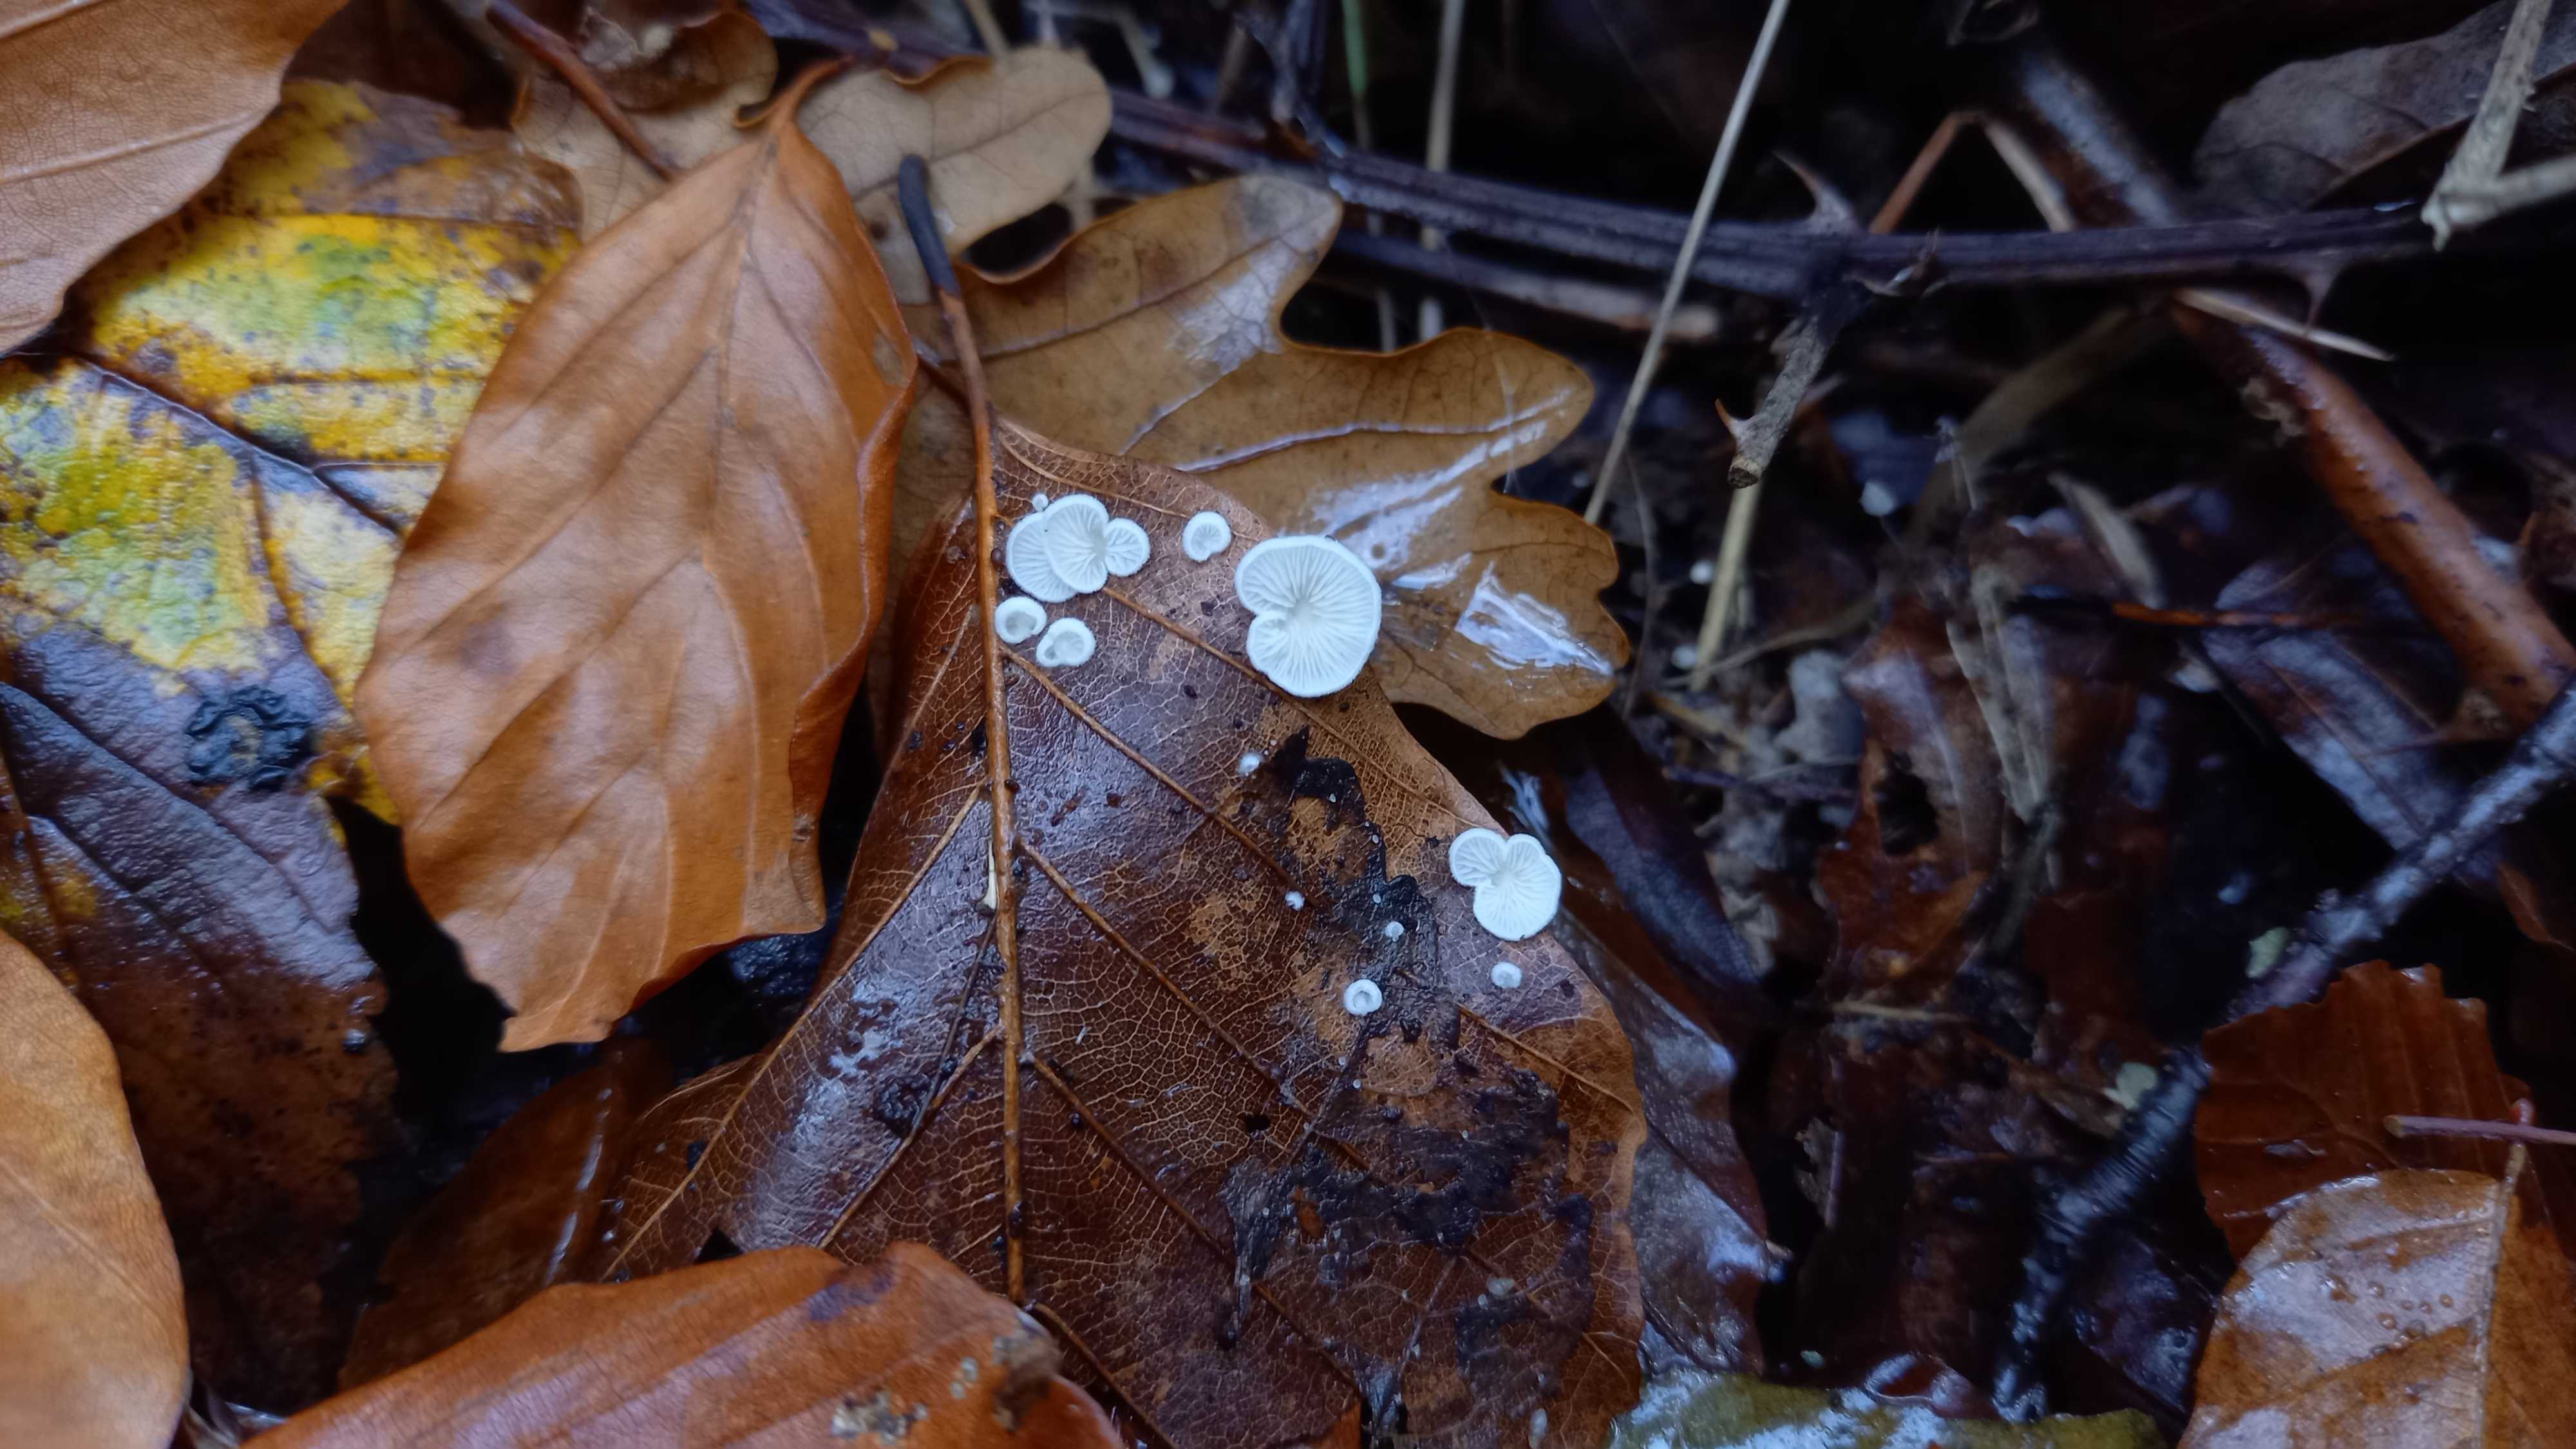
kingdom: Fungi
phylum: Basidiomycota
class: Agaricomycetes
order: Agaricales
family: Crepidotaceae
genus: Crepidotus
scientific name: Crepidotus epibryus
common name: førne-muslingesvamp
